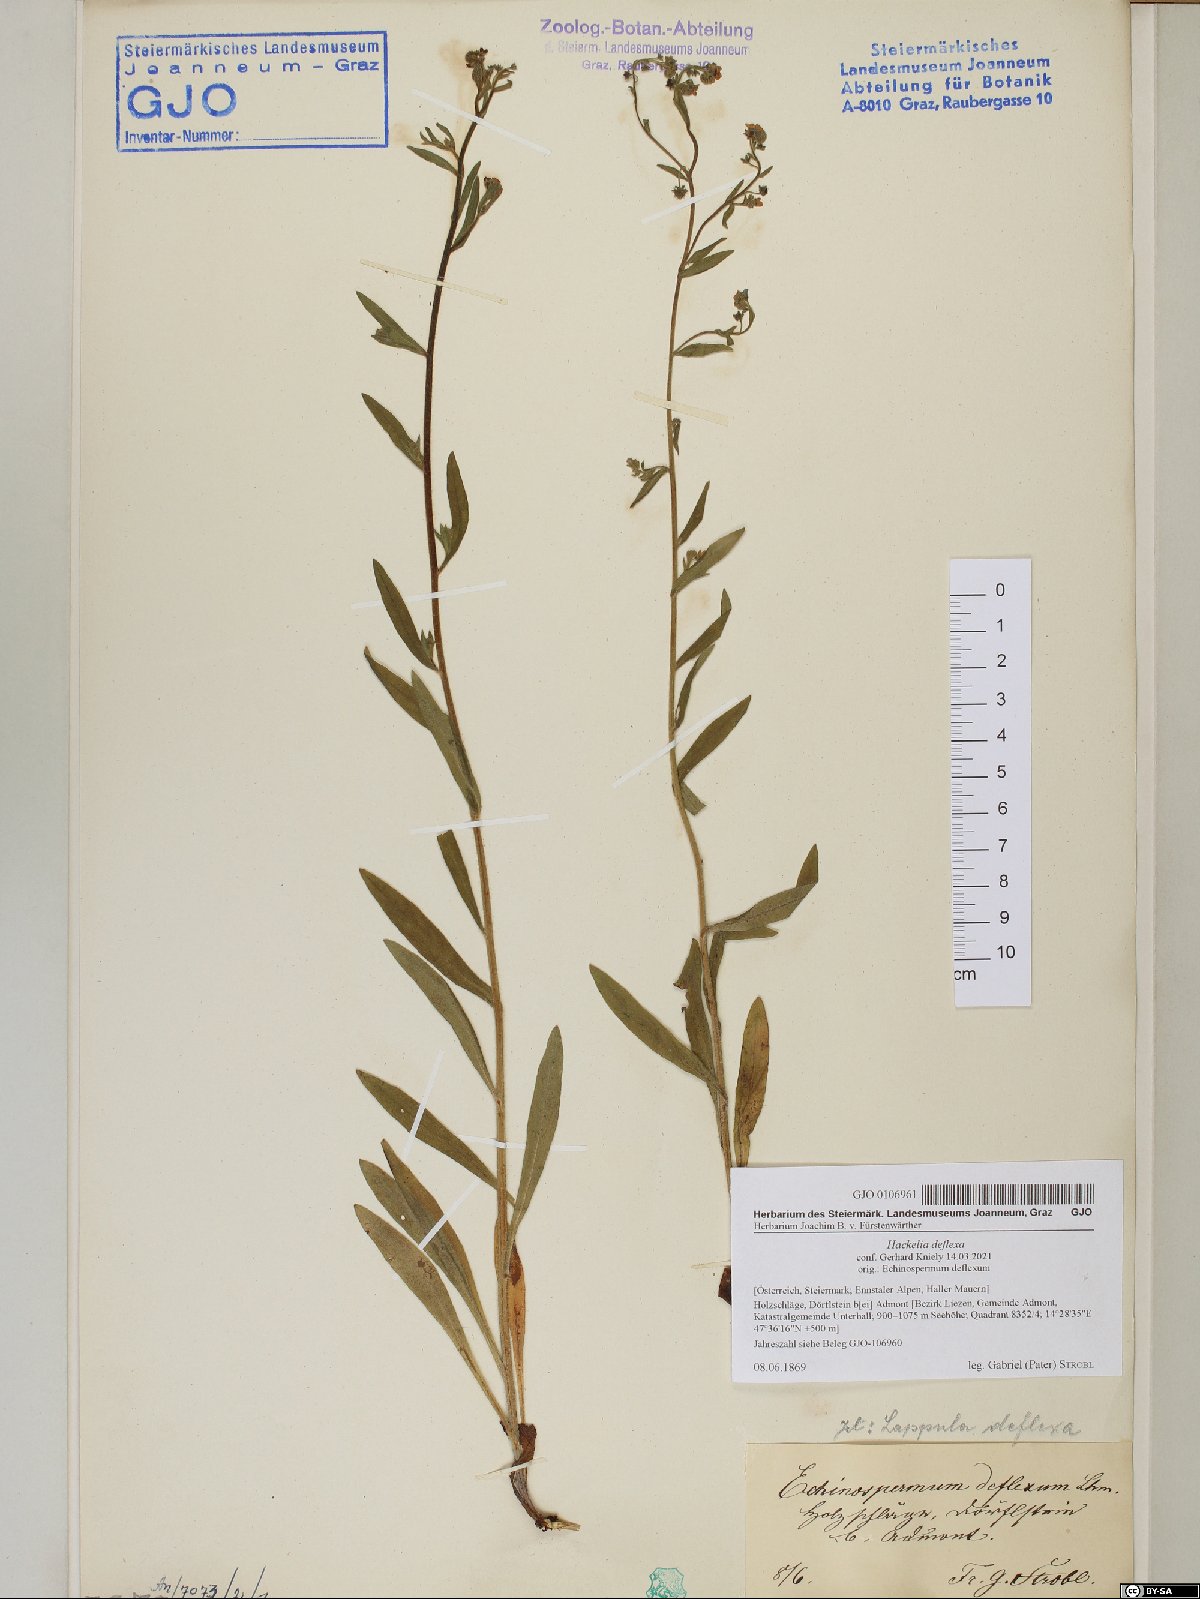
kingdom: Plantae
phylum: Tracheophyta
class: Magnoliopsida
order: Boraginales
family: Boraginaceae
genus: Hackelia
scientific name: Hackelia deflexa
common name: Nodding stickseed
